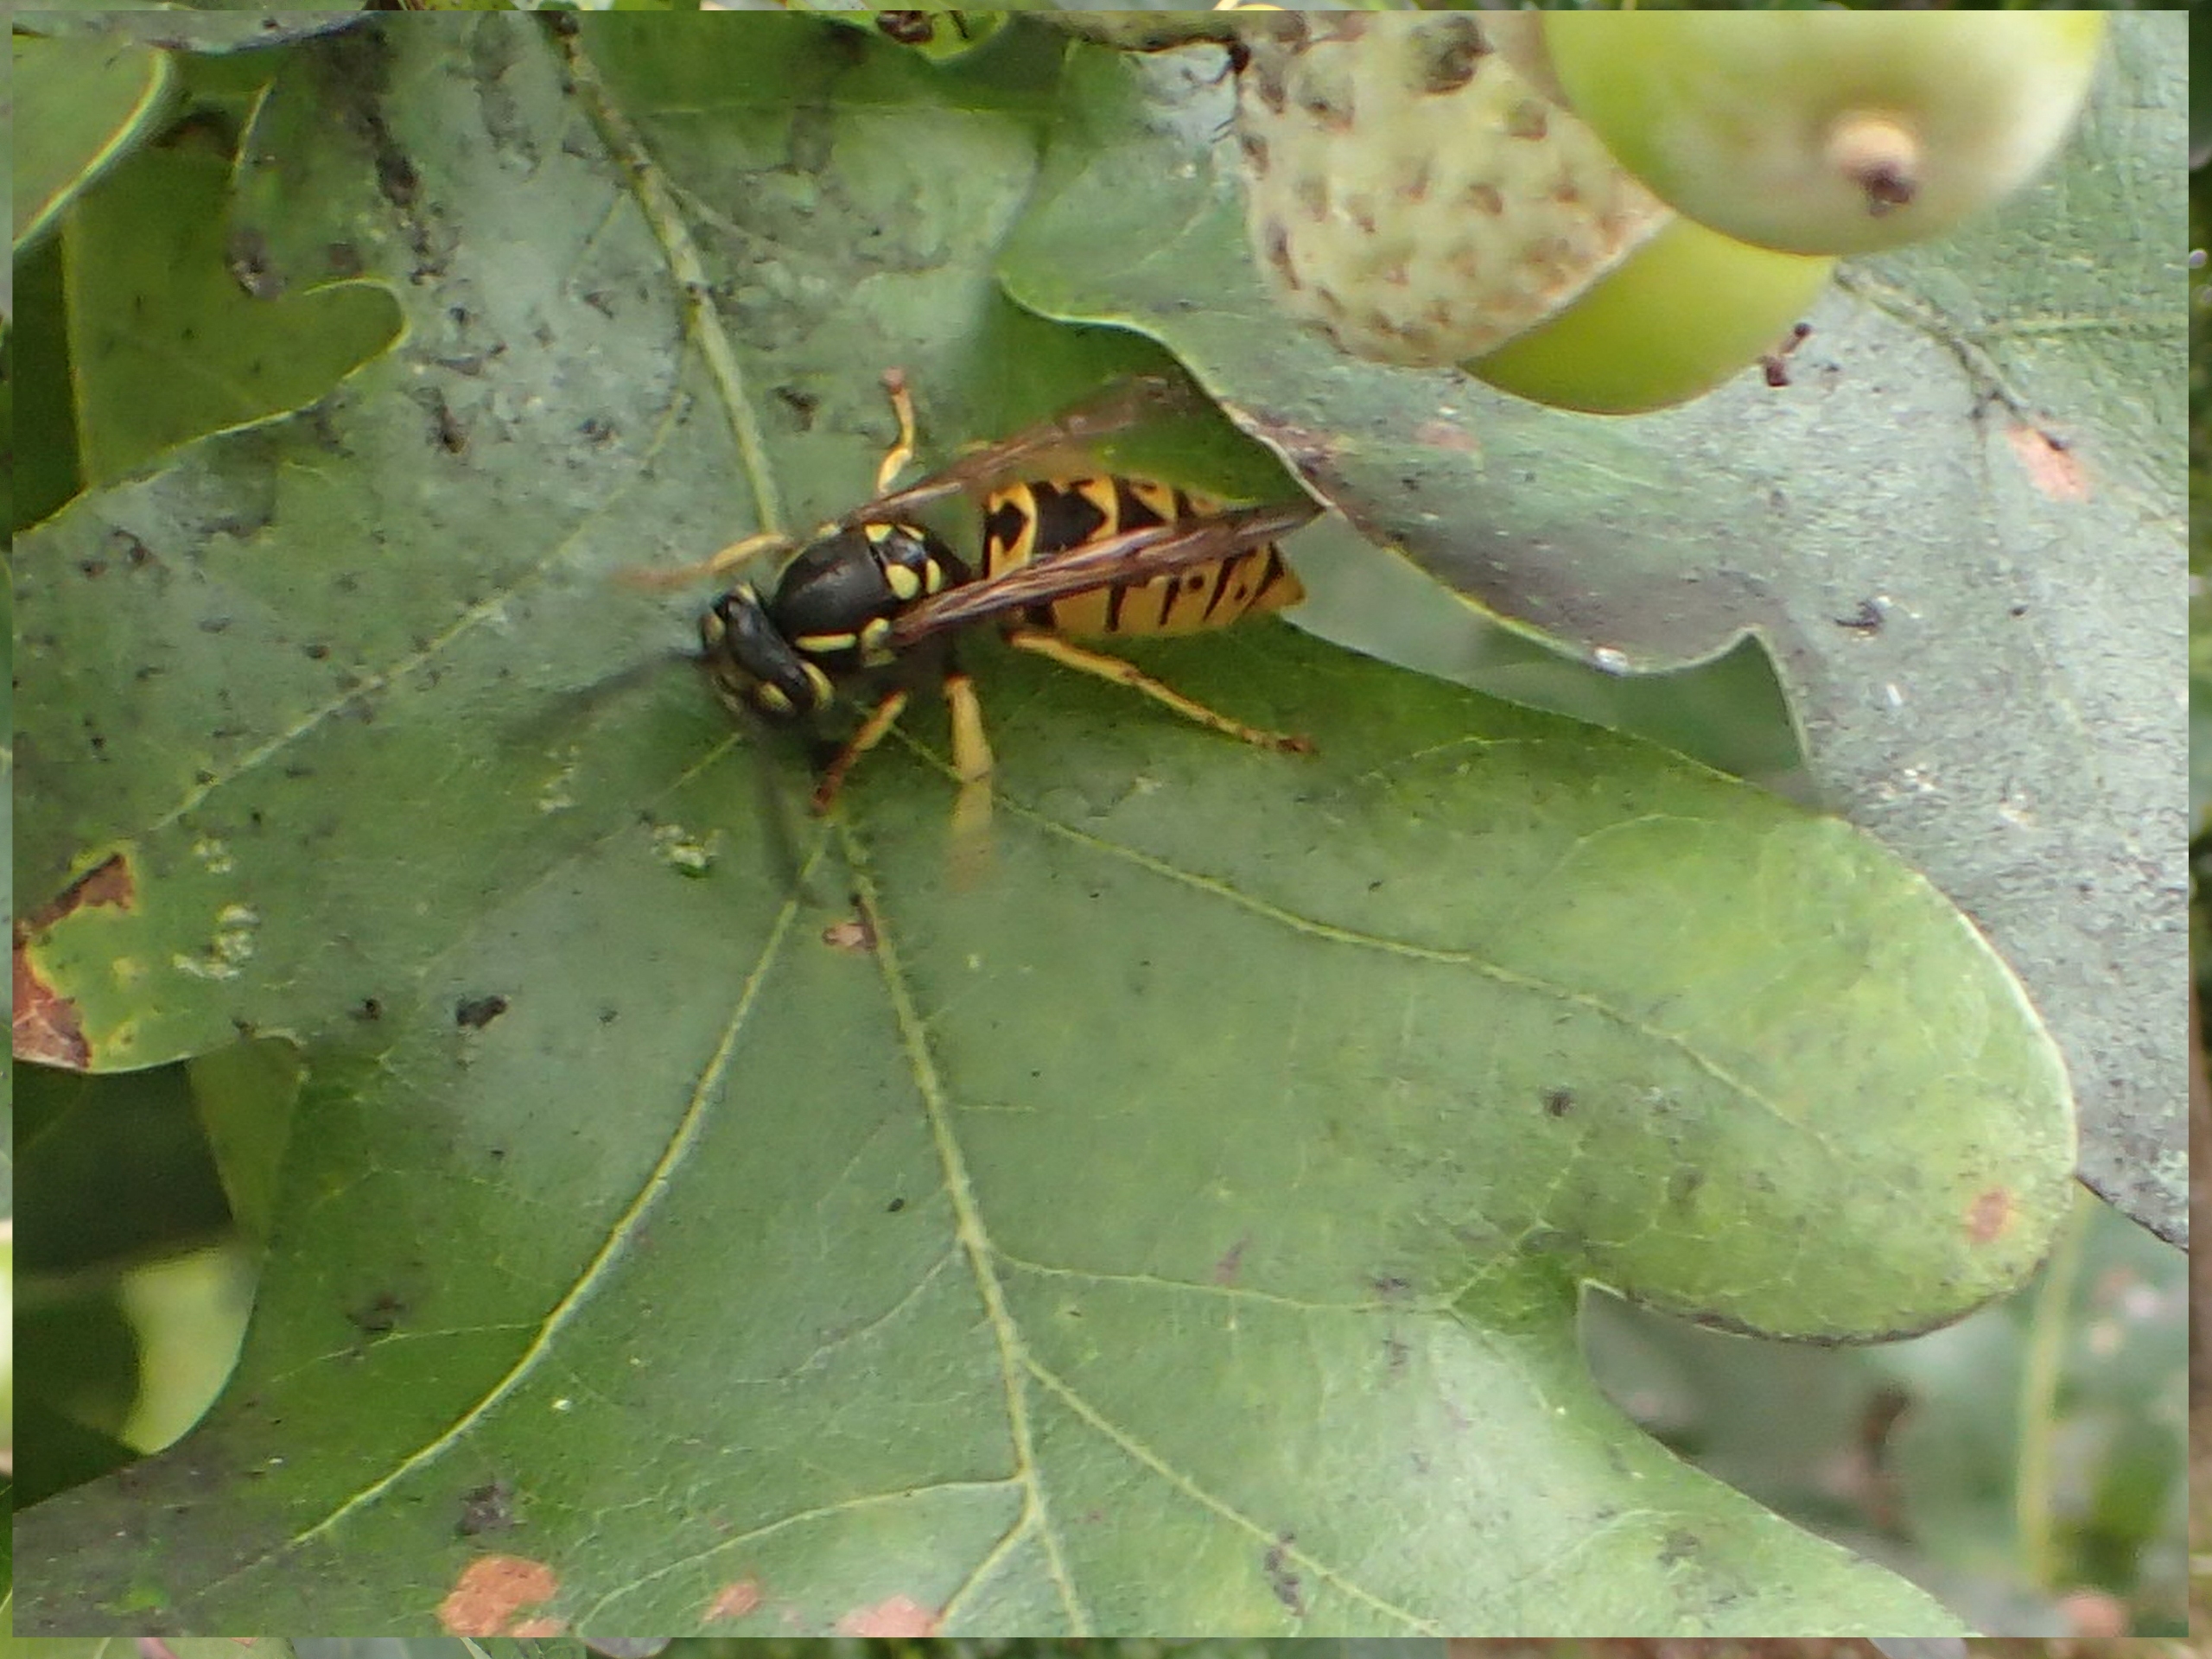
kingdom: Animalia
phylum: Arthropoda
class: Insecta
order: Hymenoptera
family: Vespidae
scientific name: Vespidae
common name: Gedehamse
